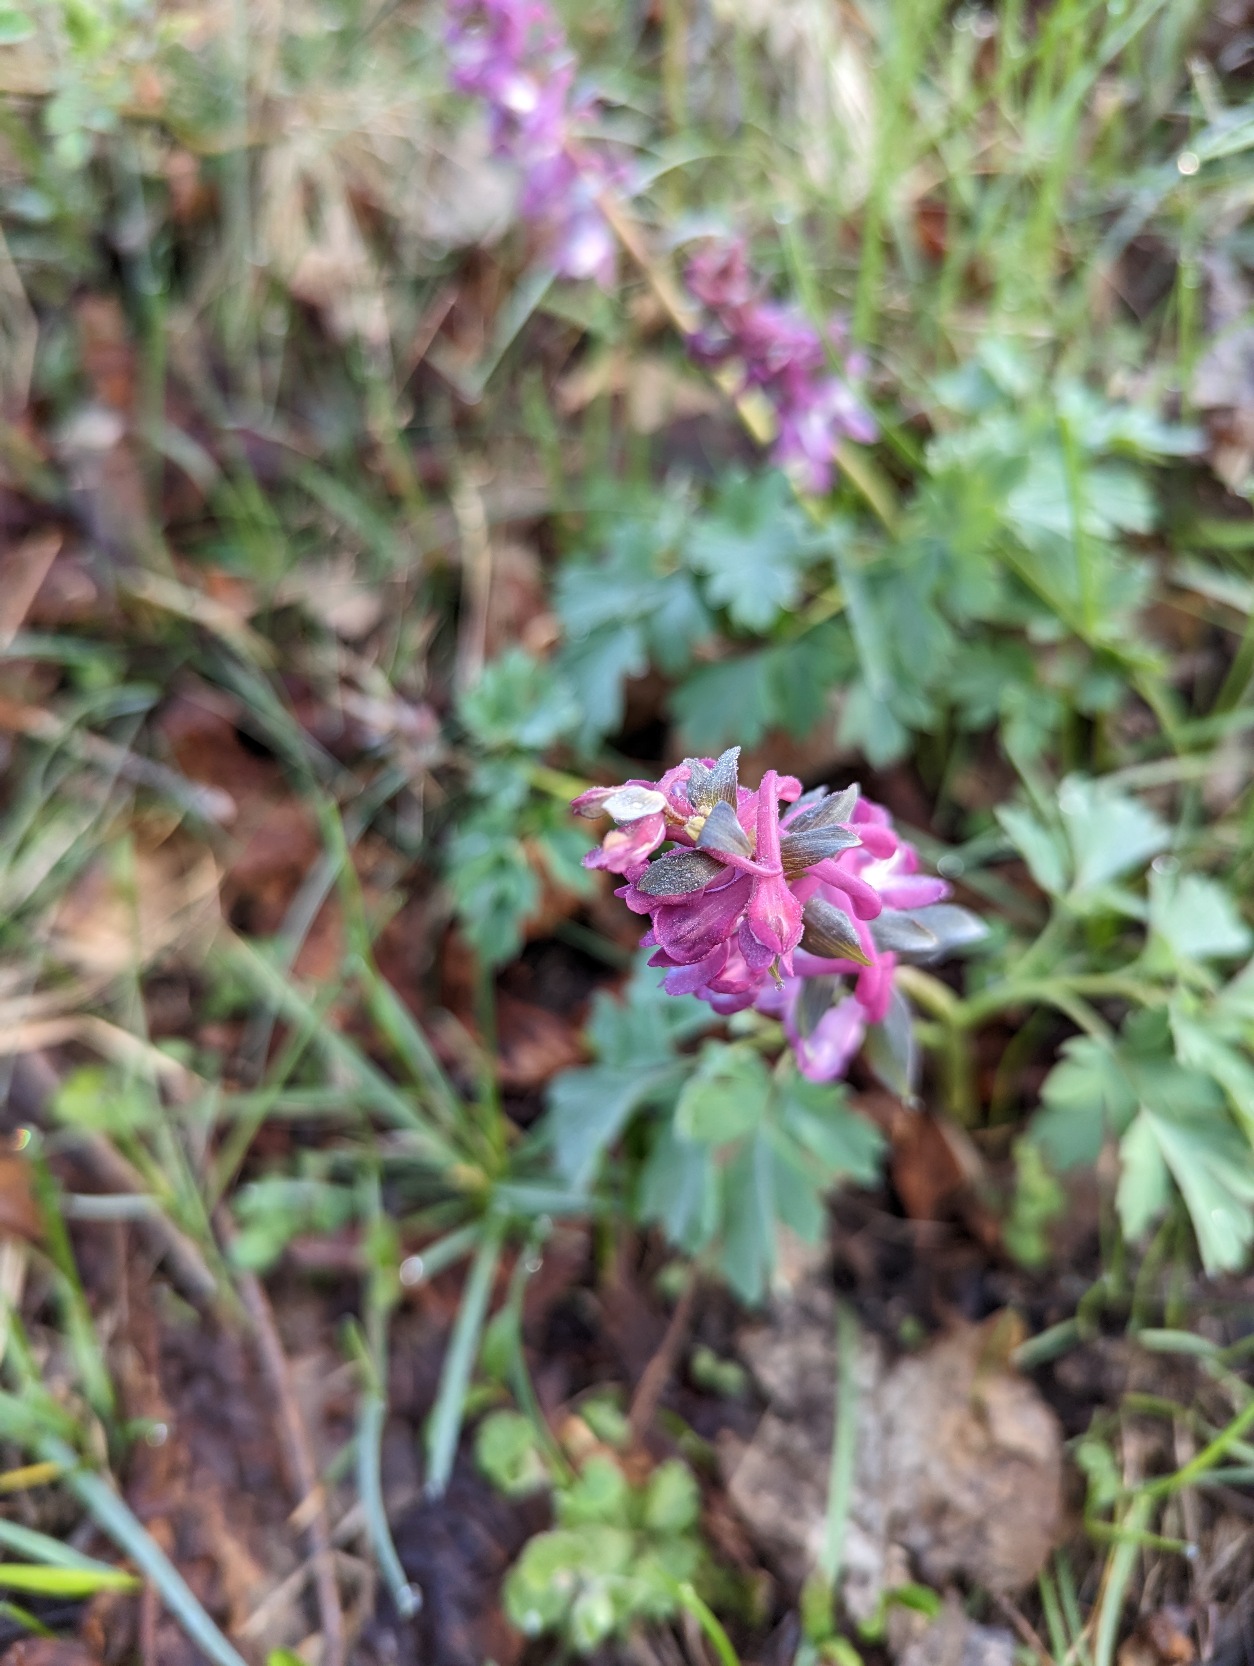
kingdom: Plantae
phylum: Tracheophyta
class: Magnoliopsida
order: Ranunculales
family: Papaveraceae
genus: Corydalis
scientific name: Corydalis cava
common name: Hulrodet lærkespore
